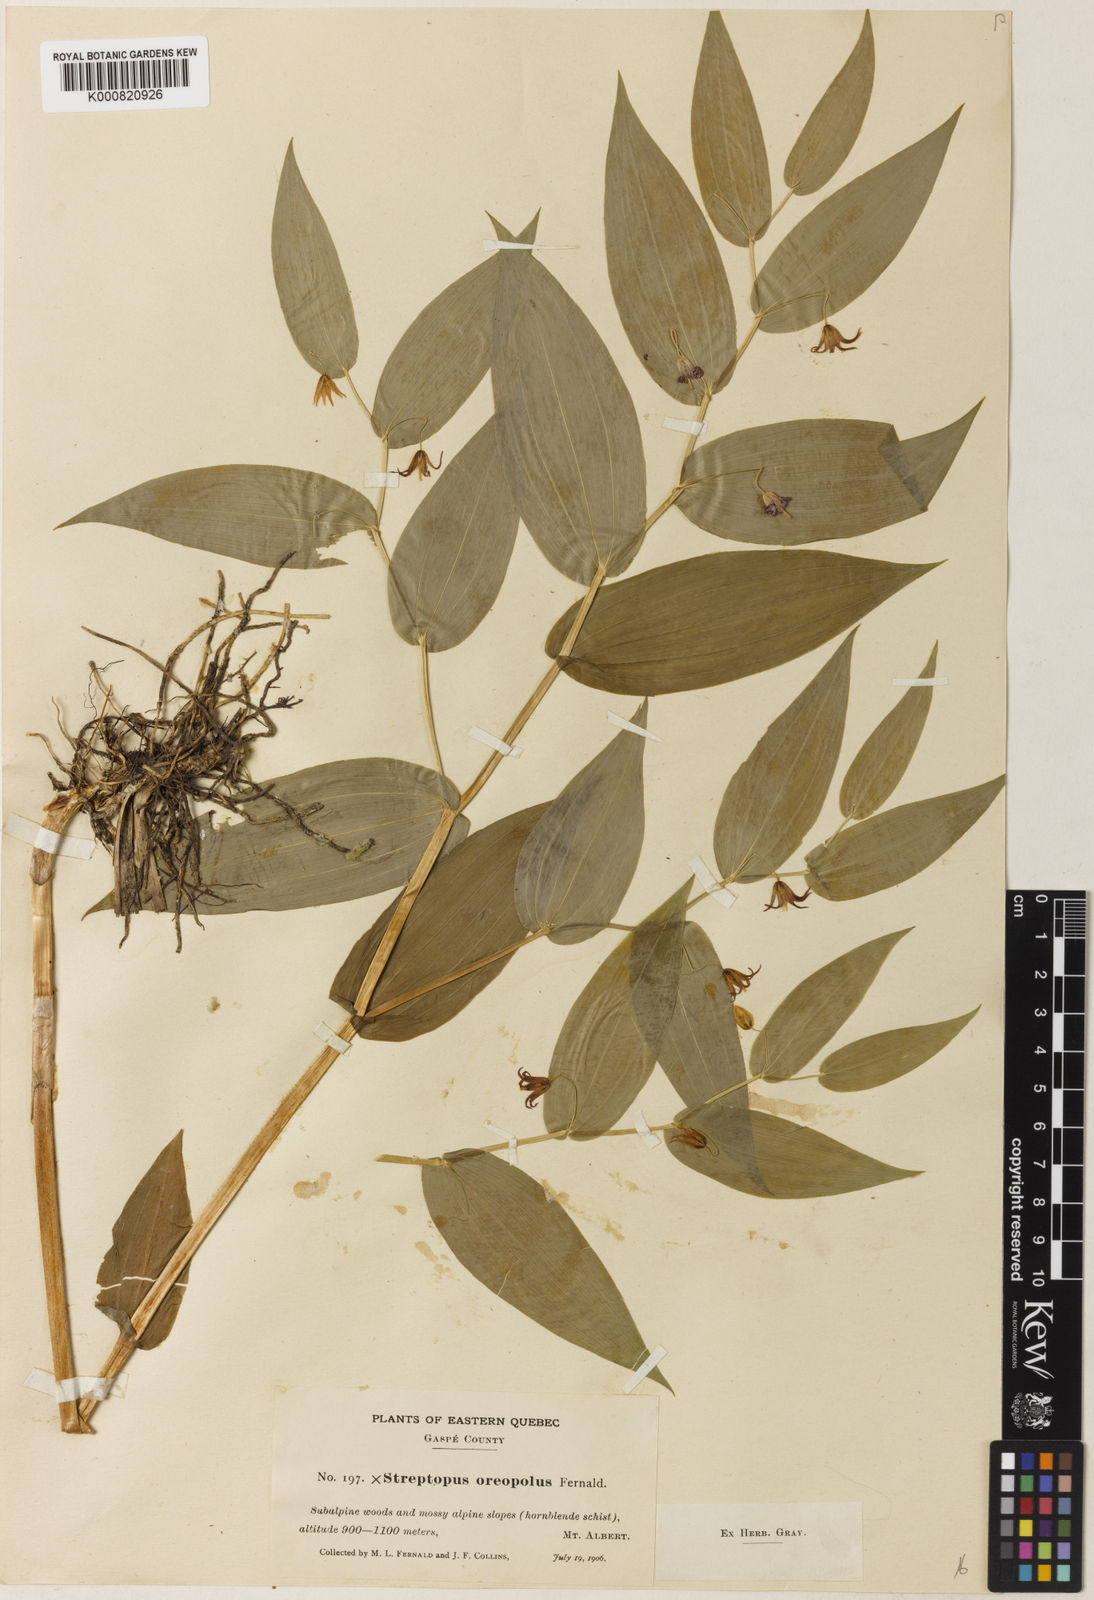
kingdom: Plantae
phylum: Tracheophyta
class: Liliopsida
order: Liliales
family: Liliaceae
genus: Streptopus
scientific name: Streptopus oreopolus
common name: Hybrid twisted-stalk
